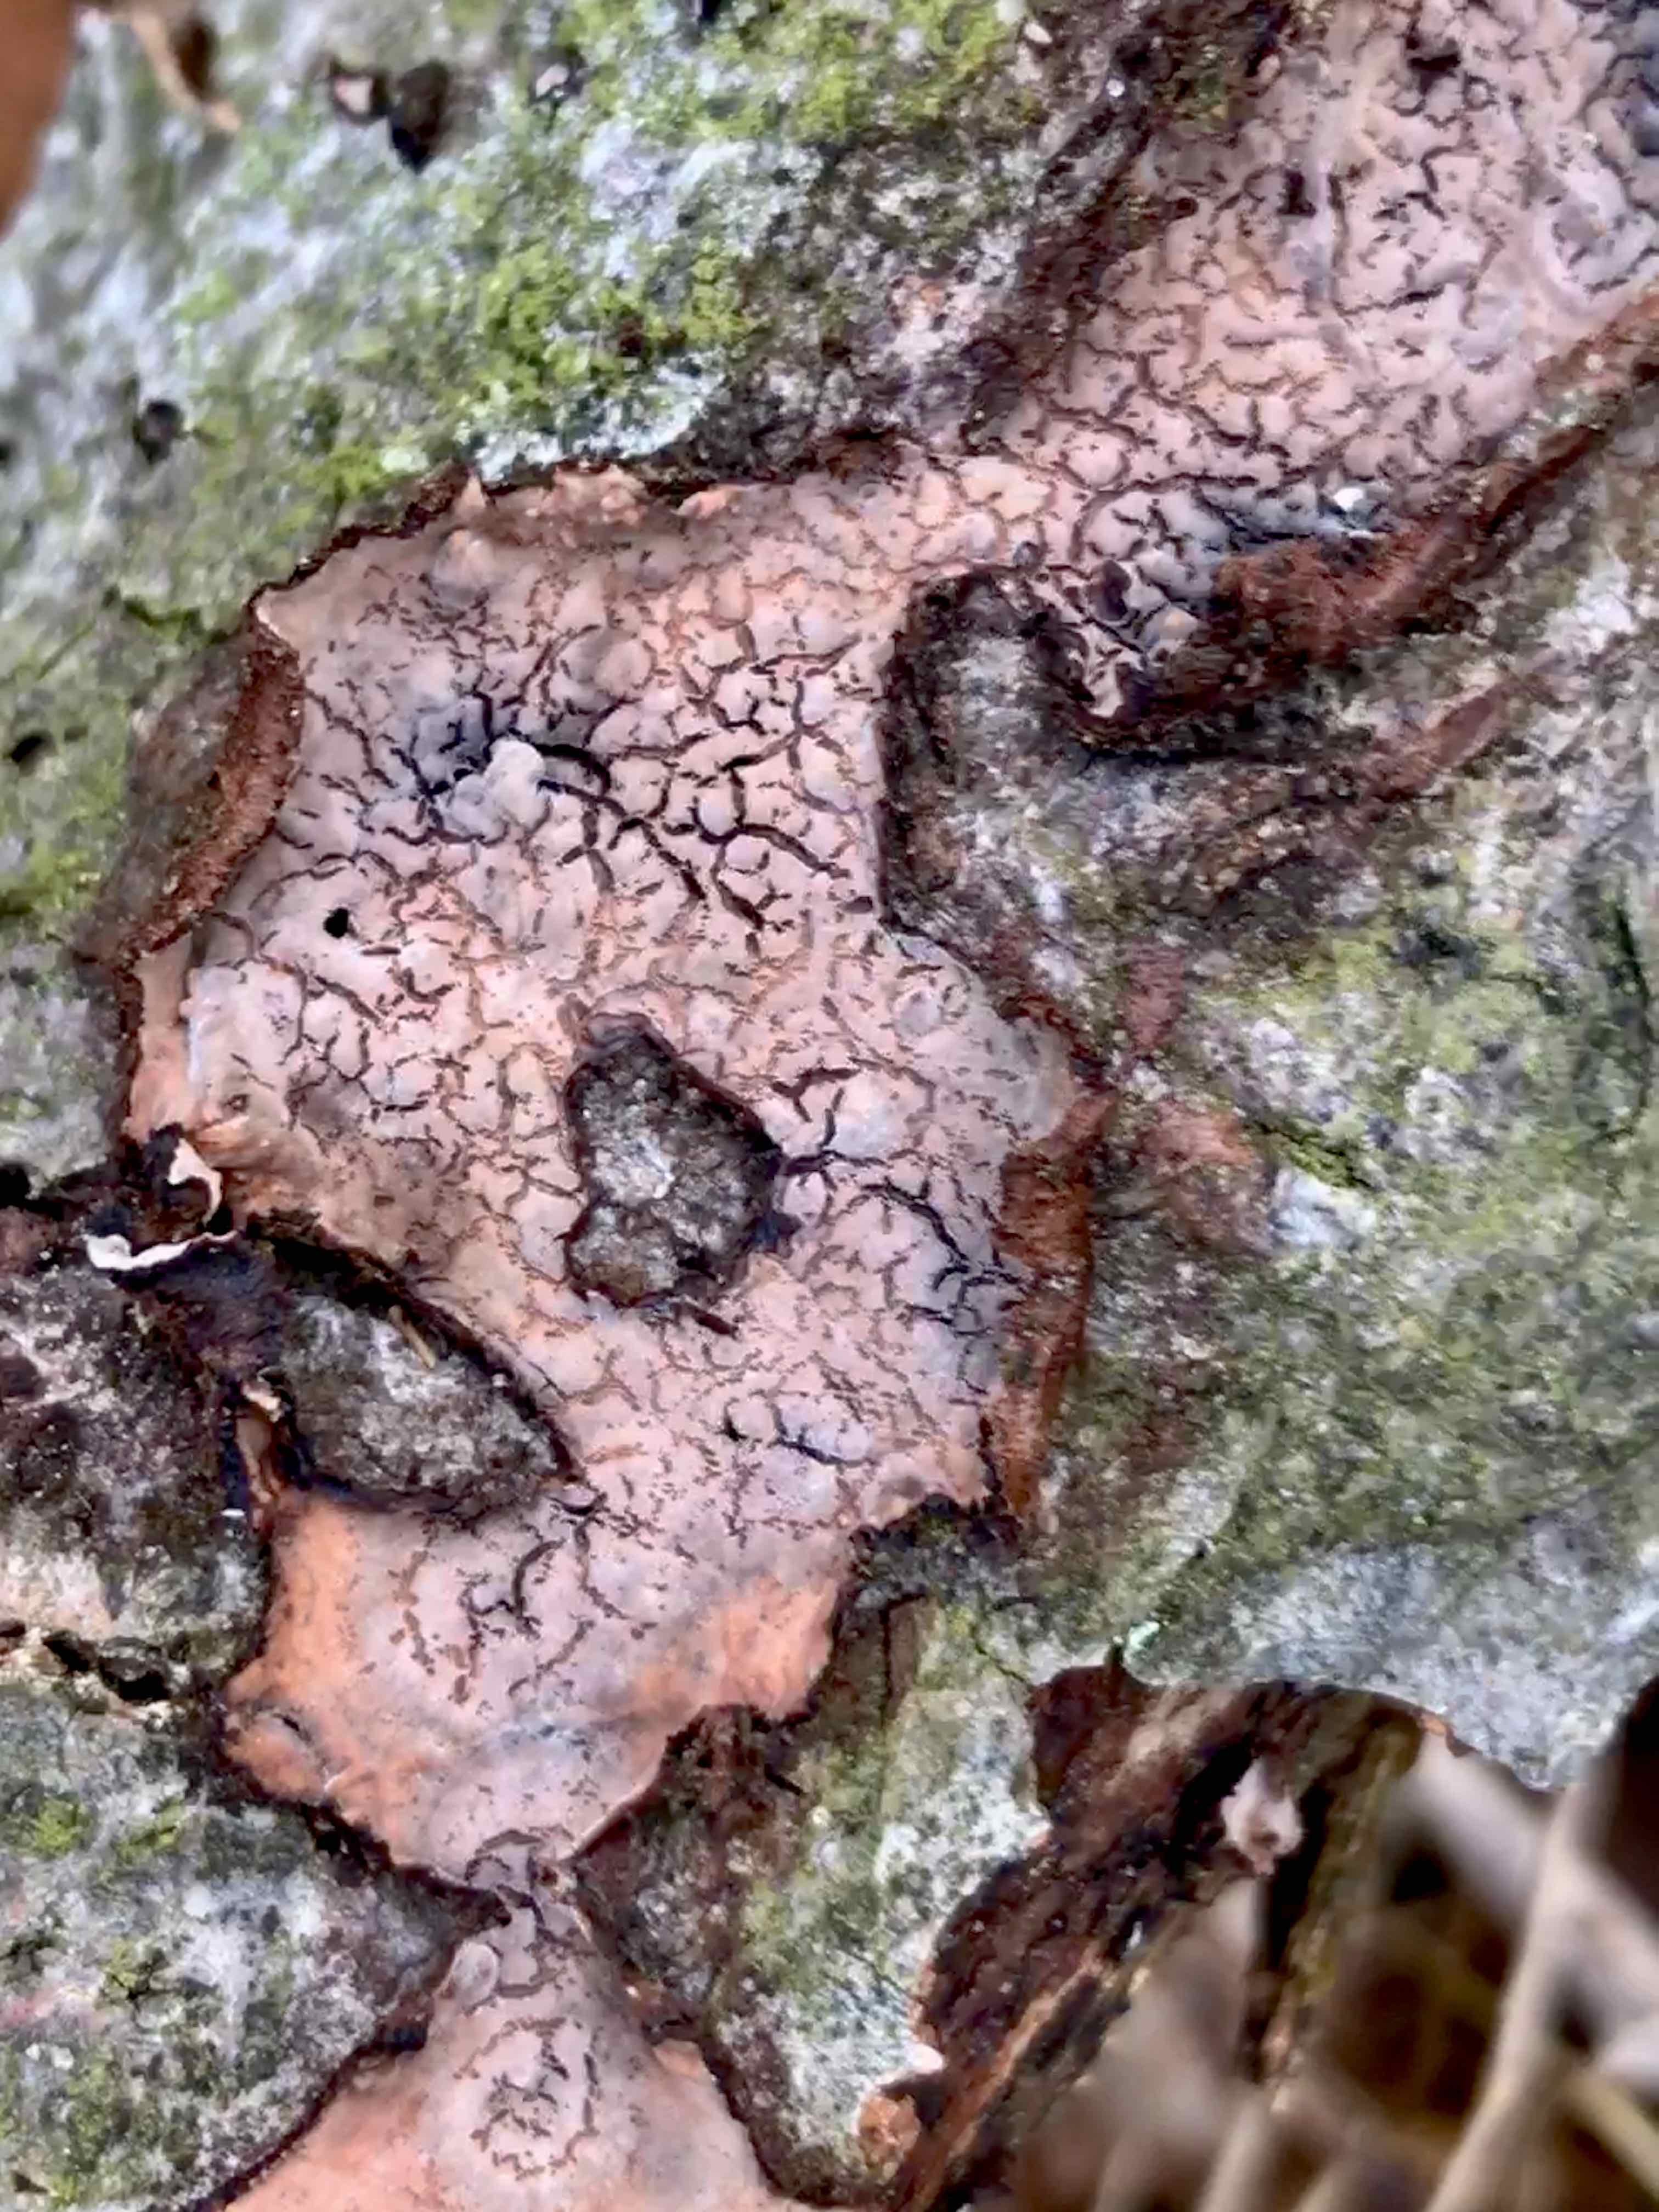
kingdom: Fungi
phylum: Basidiomycota
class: Agaricomycetes
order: Russulales
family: Peniophoraceae
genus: Peniophora
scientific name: Peniophora quercina
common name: ege-voksskind
